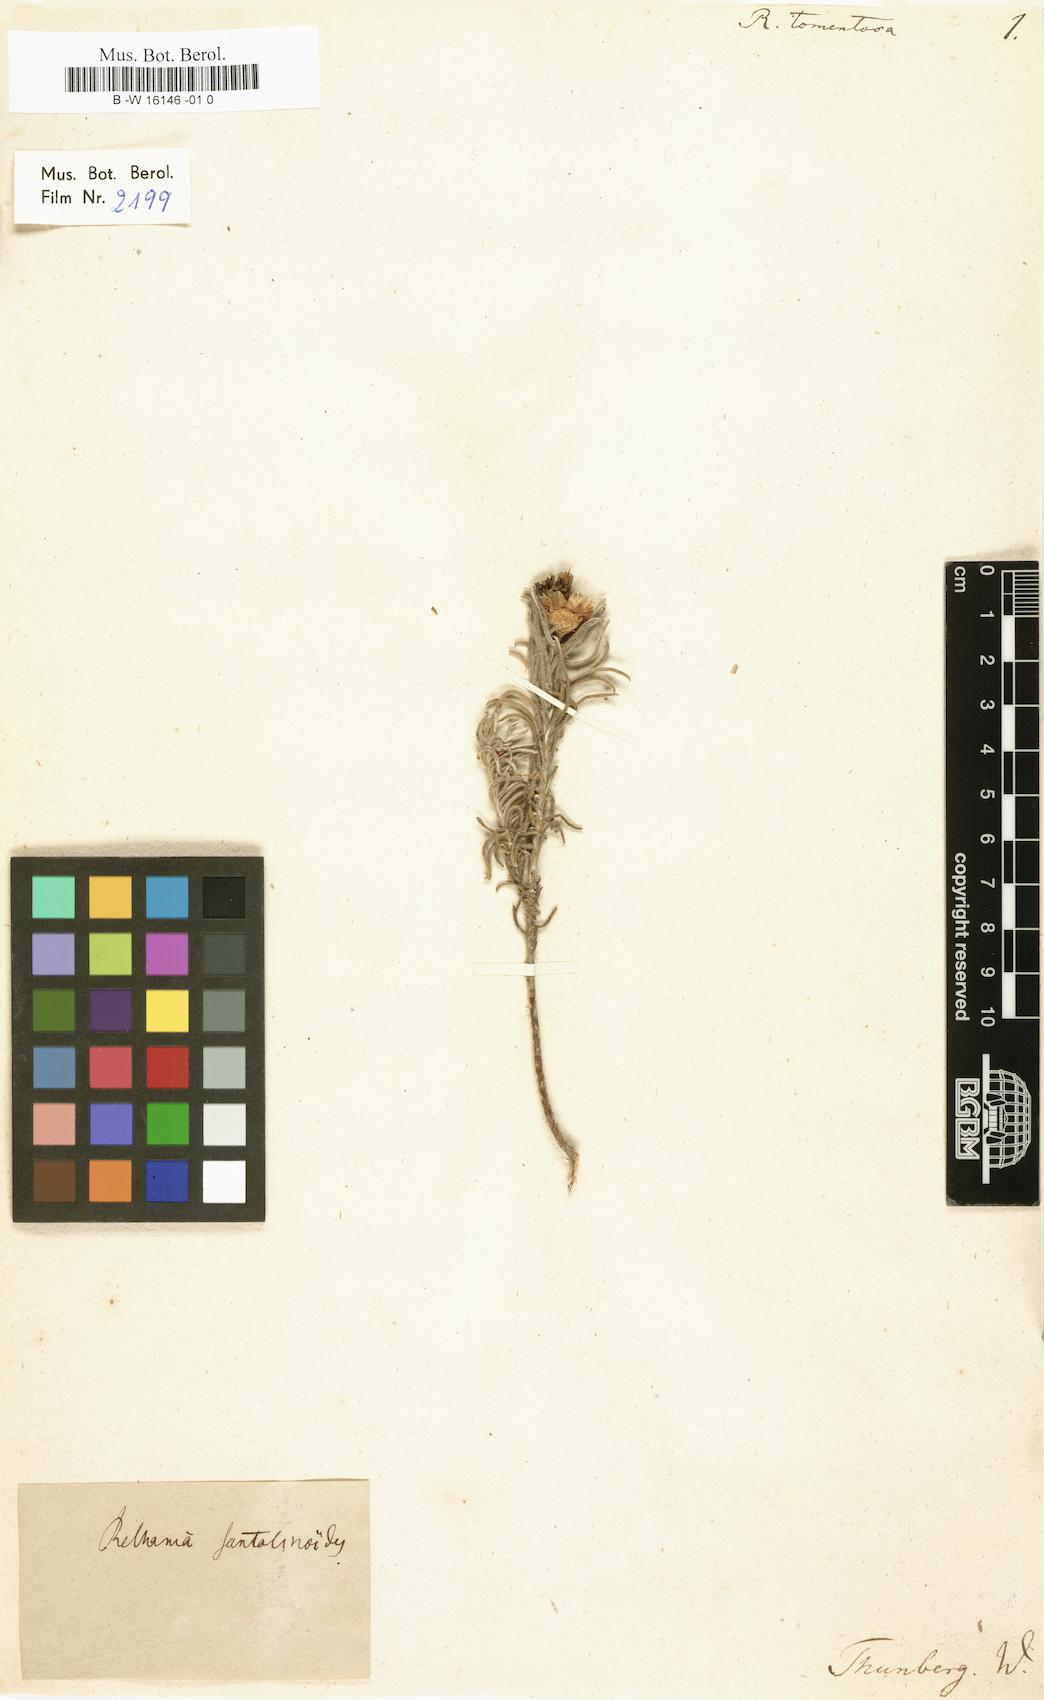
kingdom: Plantae
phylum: Tracheophyta
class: Magnoliopsida
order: Asterales
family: Asteraceae
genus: Amphiglossa
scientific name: Amphiglossa tomentosa
